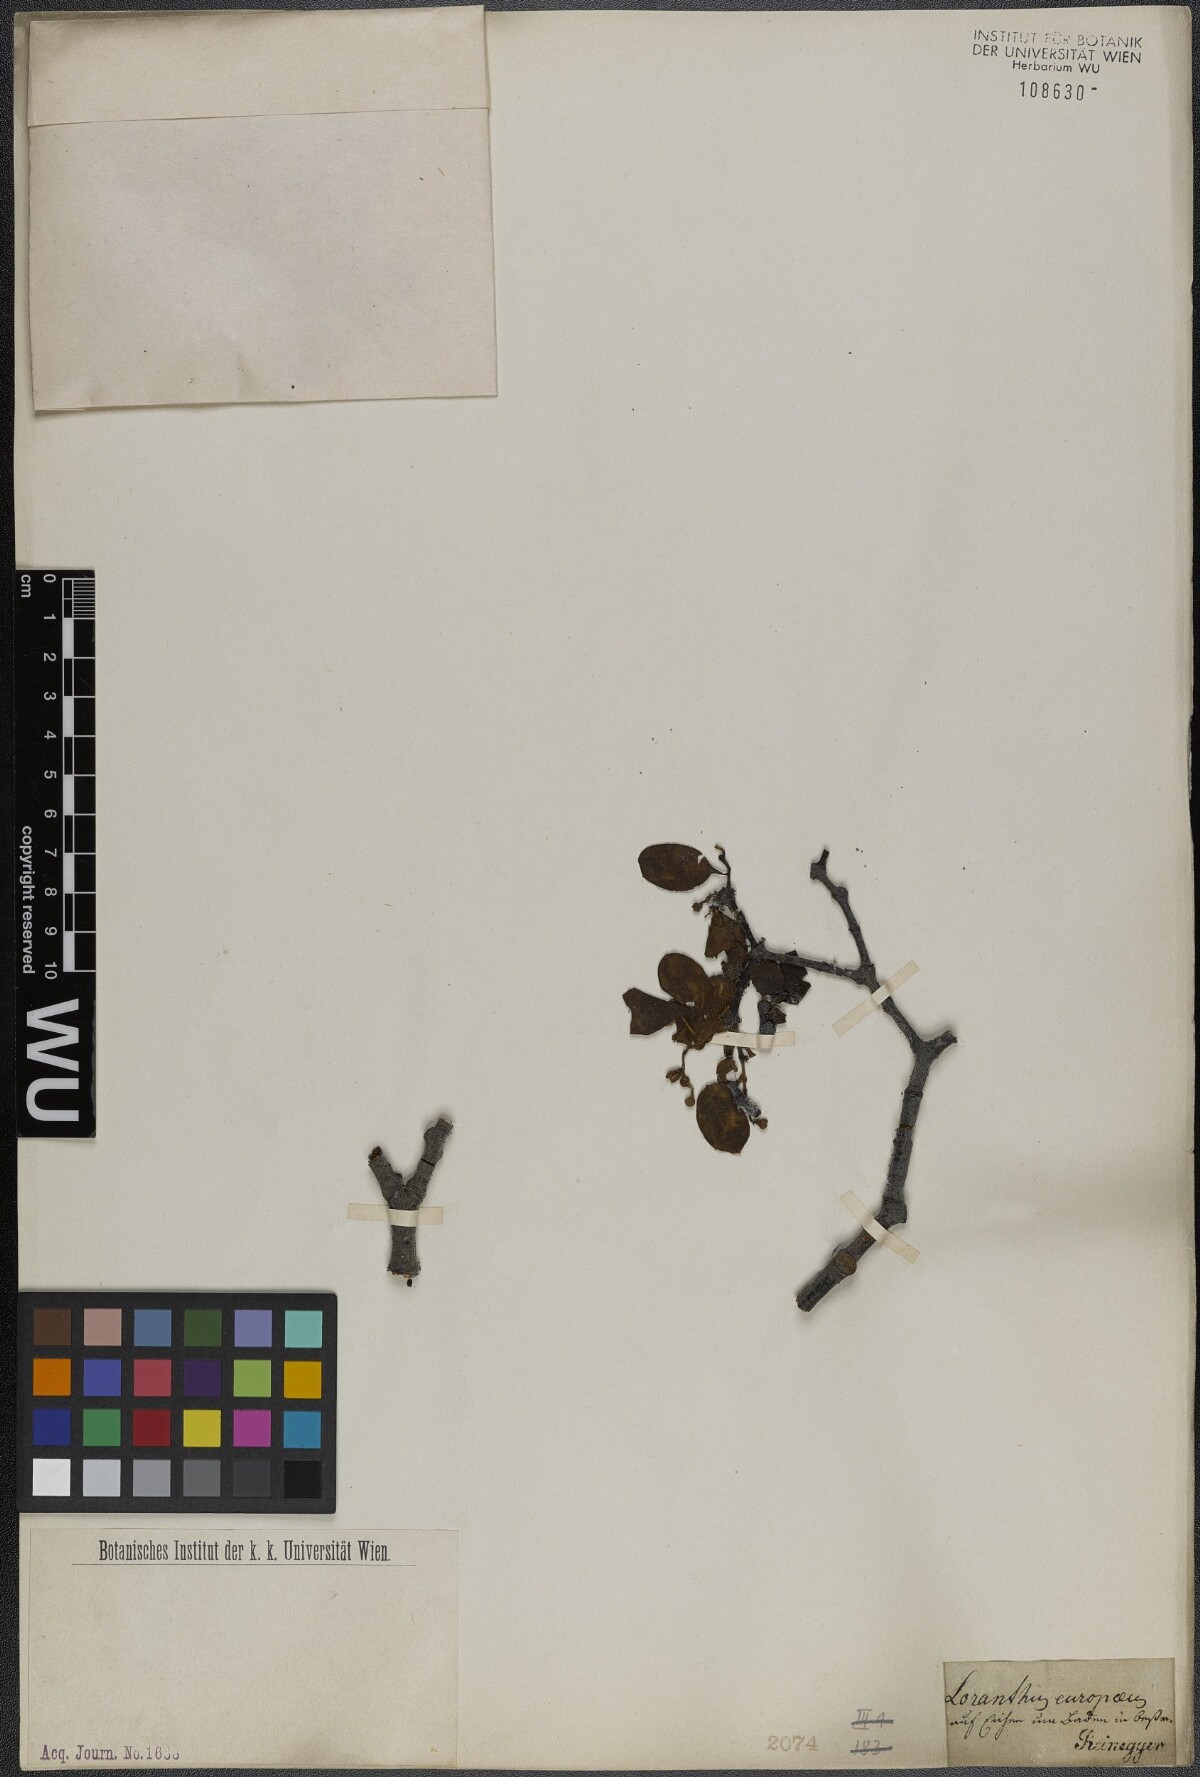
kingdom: Plantae
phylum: Tracheophyta
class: Magnoliopsida
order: Santalales
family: Loranthaceae
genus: Loranthus
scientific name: Loranthus europaeus
